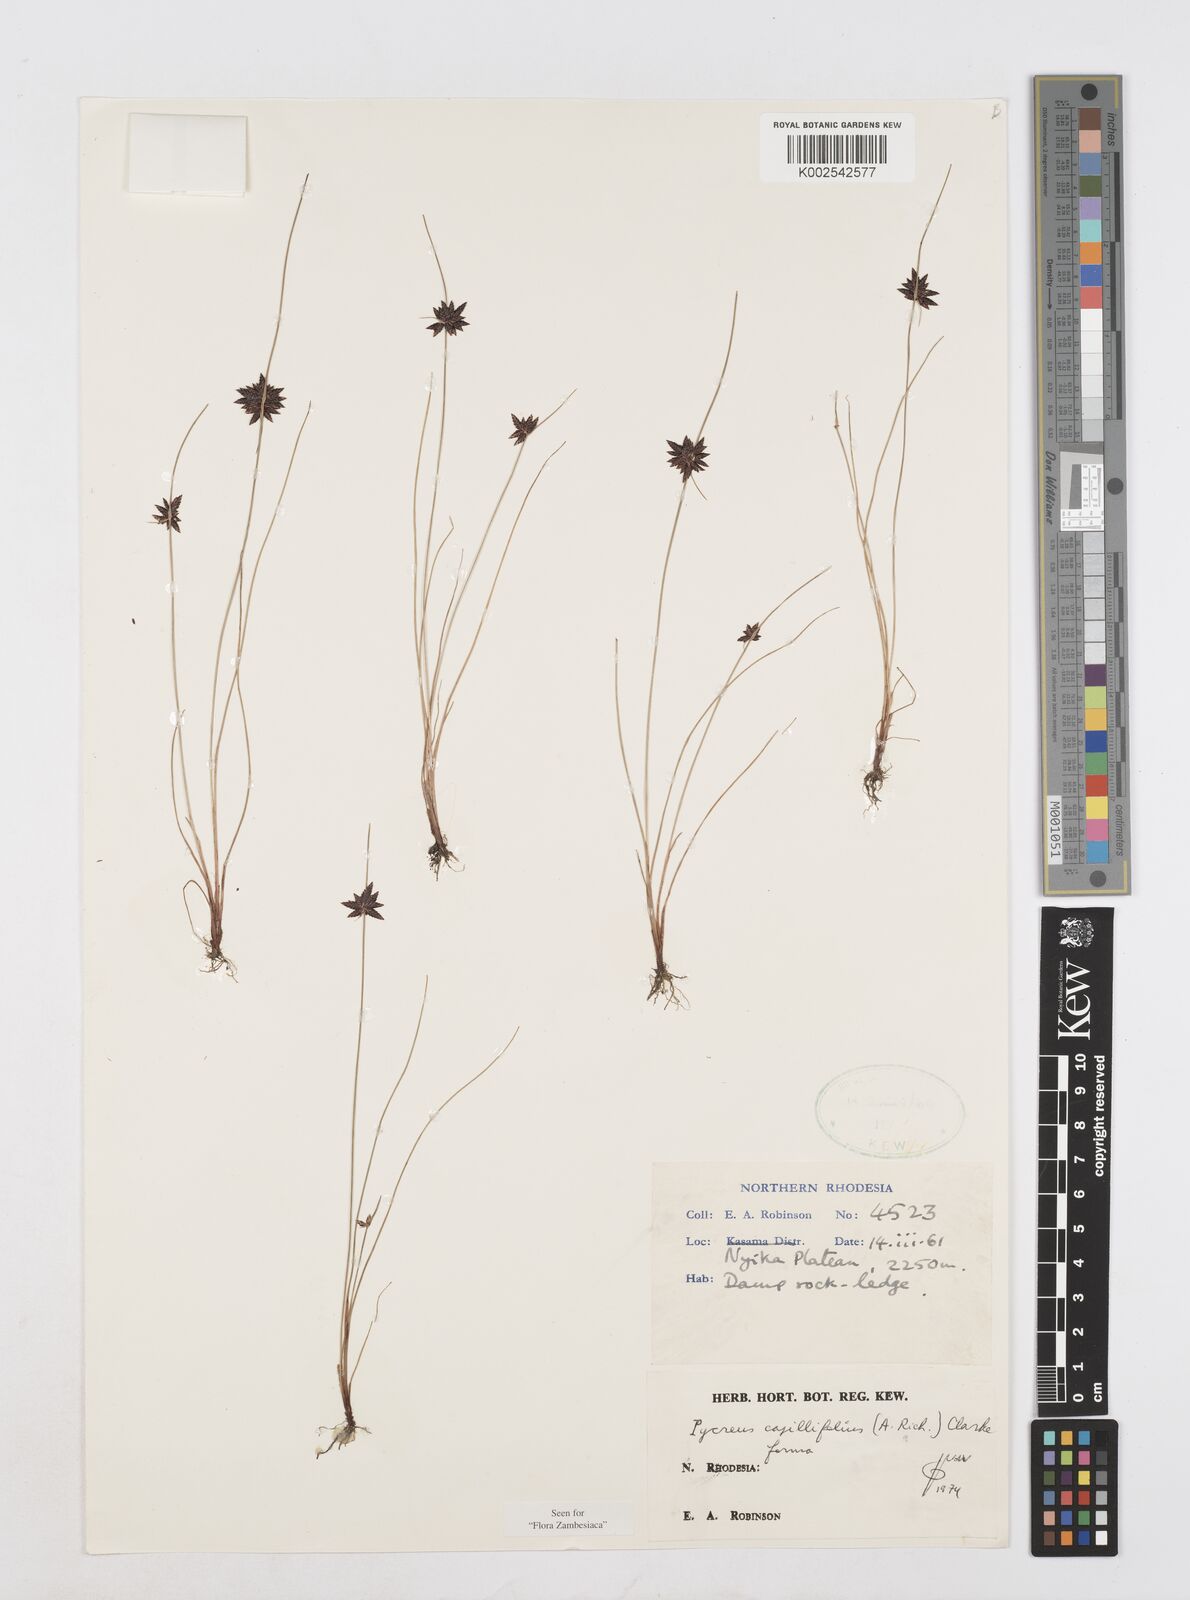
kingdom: Plantae
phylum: Tracheophyta
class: Liliopsida
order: Poales
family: Cyperaceae
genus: Cyperus
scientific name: Cyperus capillifolius
